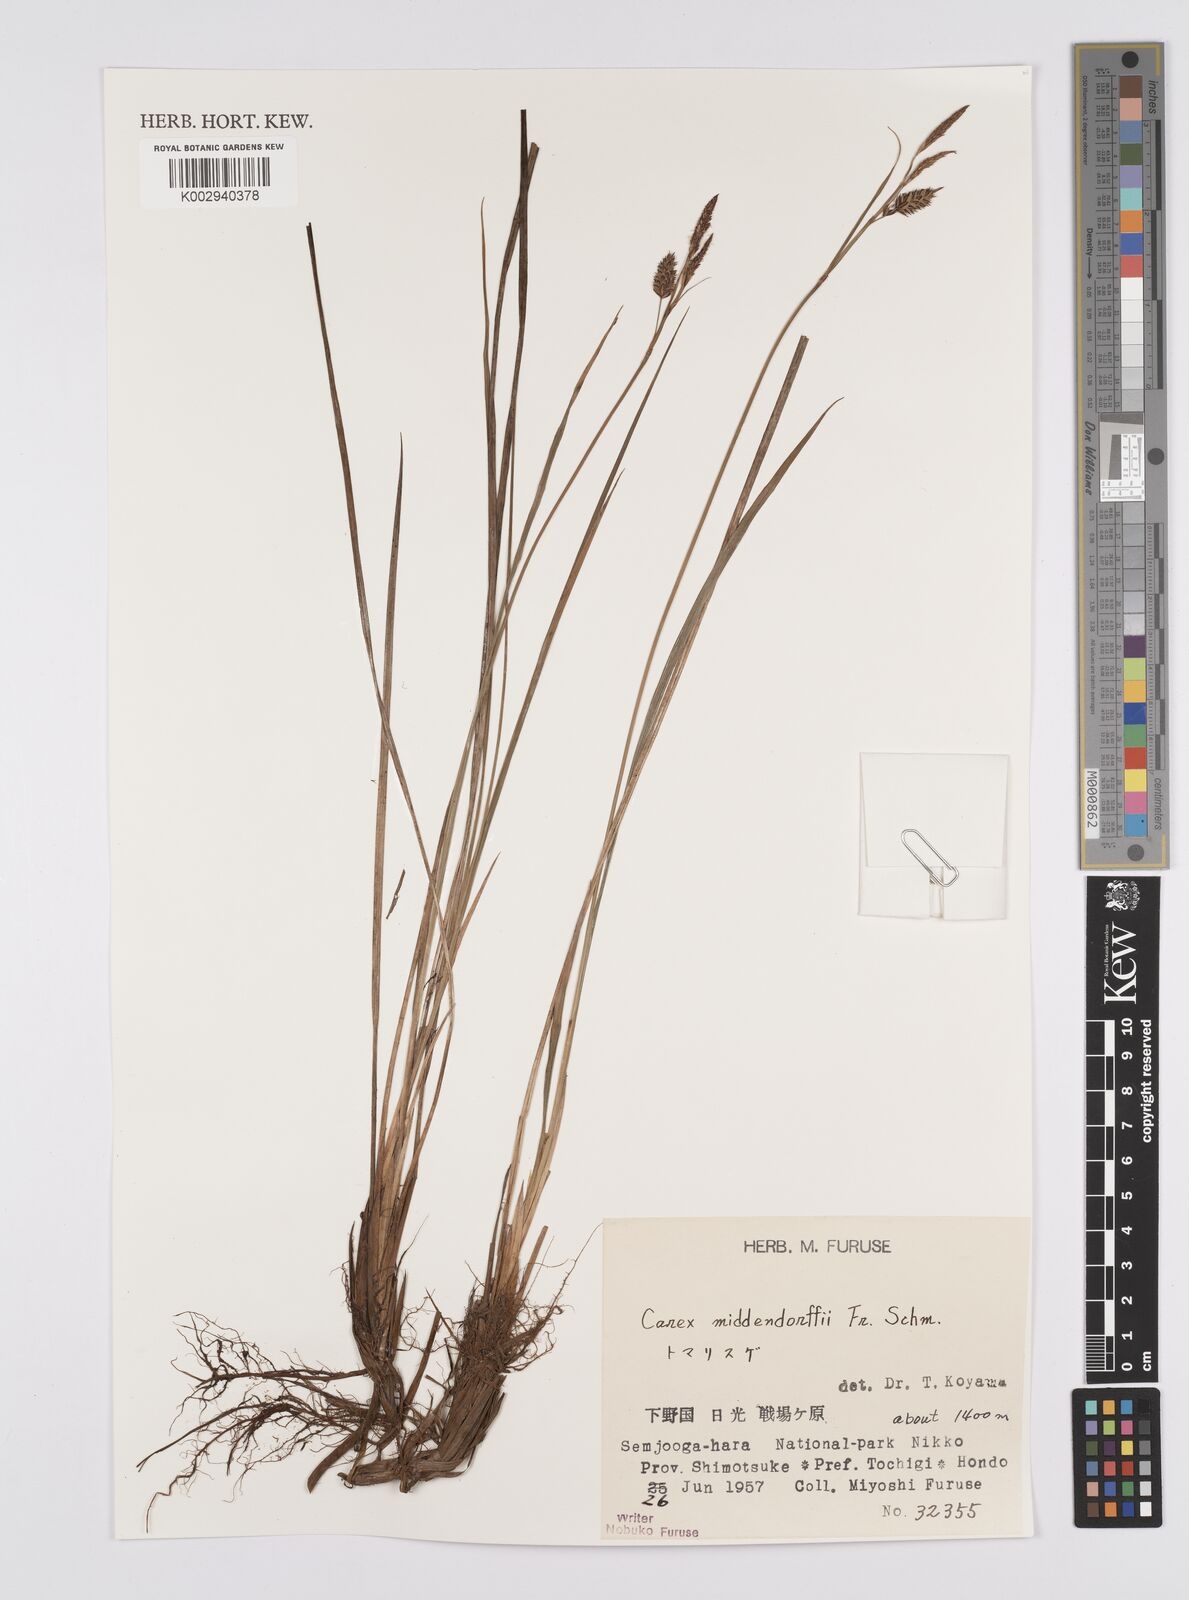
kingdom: Plantae
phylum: Tracheophyta
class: Liliopsida
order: Poales
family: Cyperaceae
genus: Carex
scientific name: Carex middendorffii
